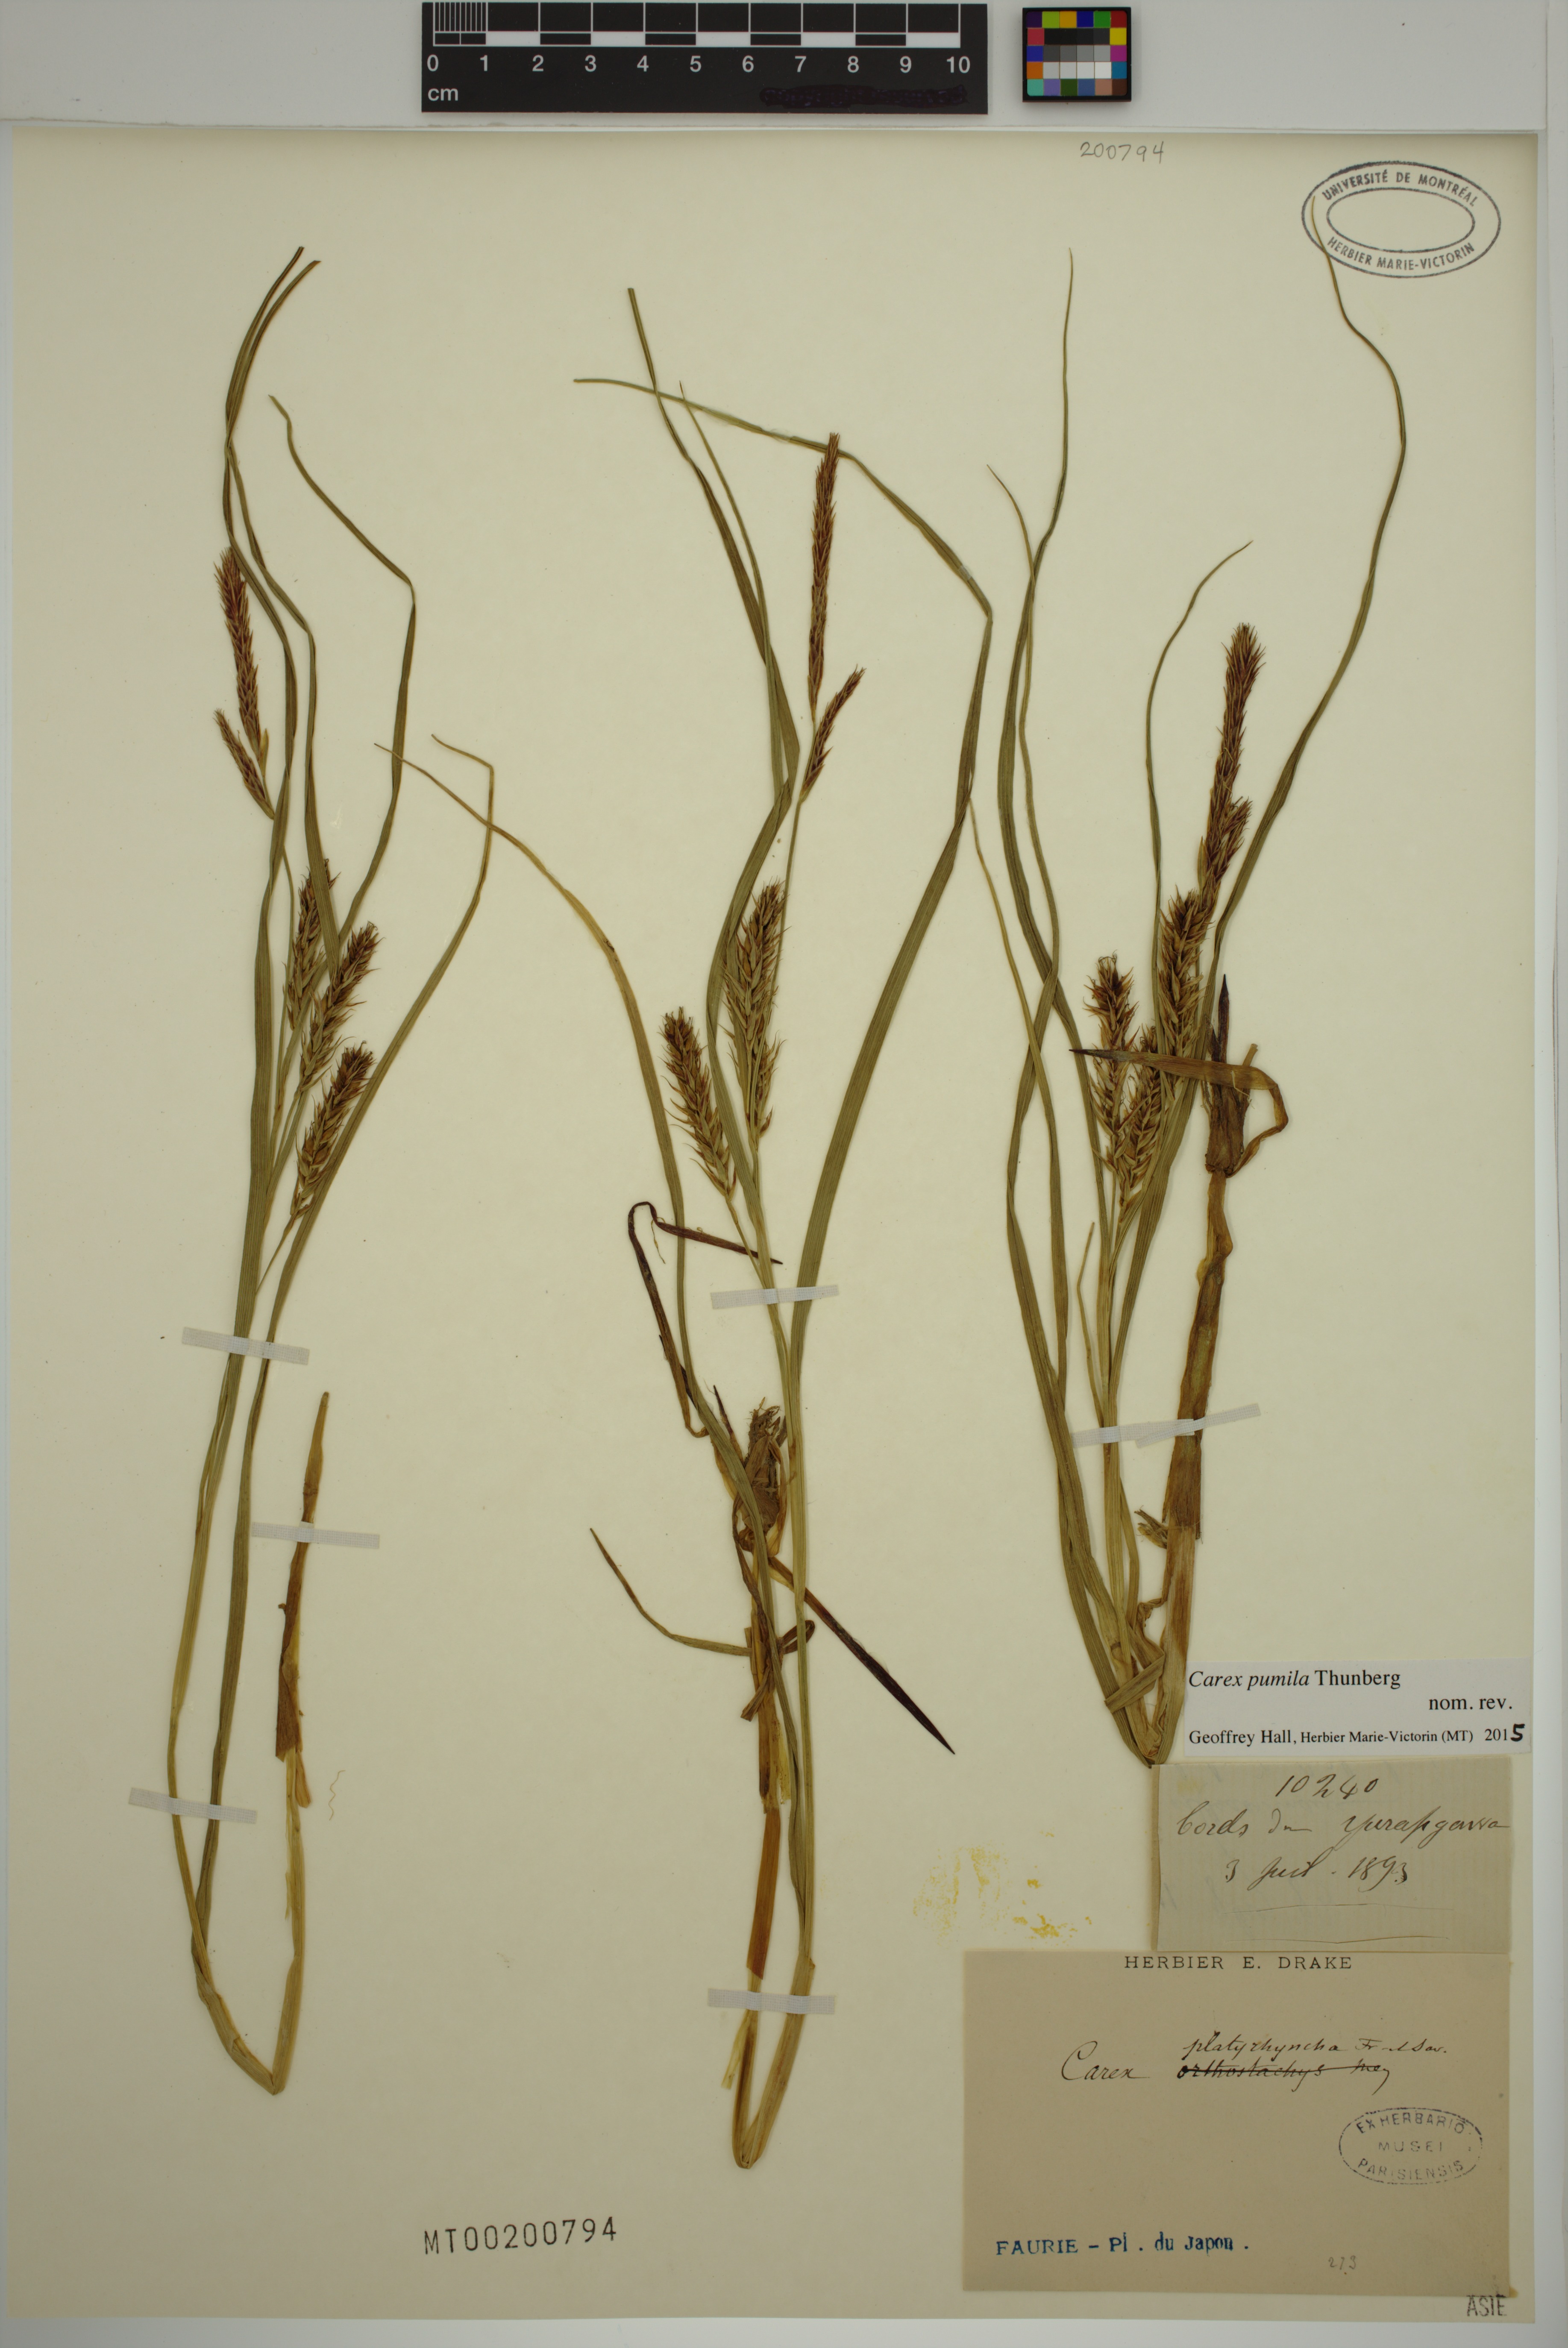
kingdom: Plantae
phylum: Tracheophyta
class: Liliopsida
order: Poales
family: Cyperaceae
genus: Carex
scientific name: Carex pumila
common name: Dwarf sedge
